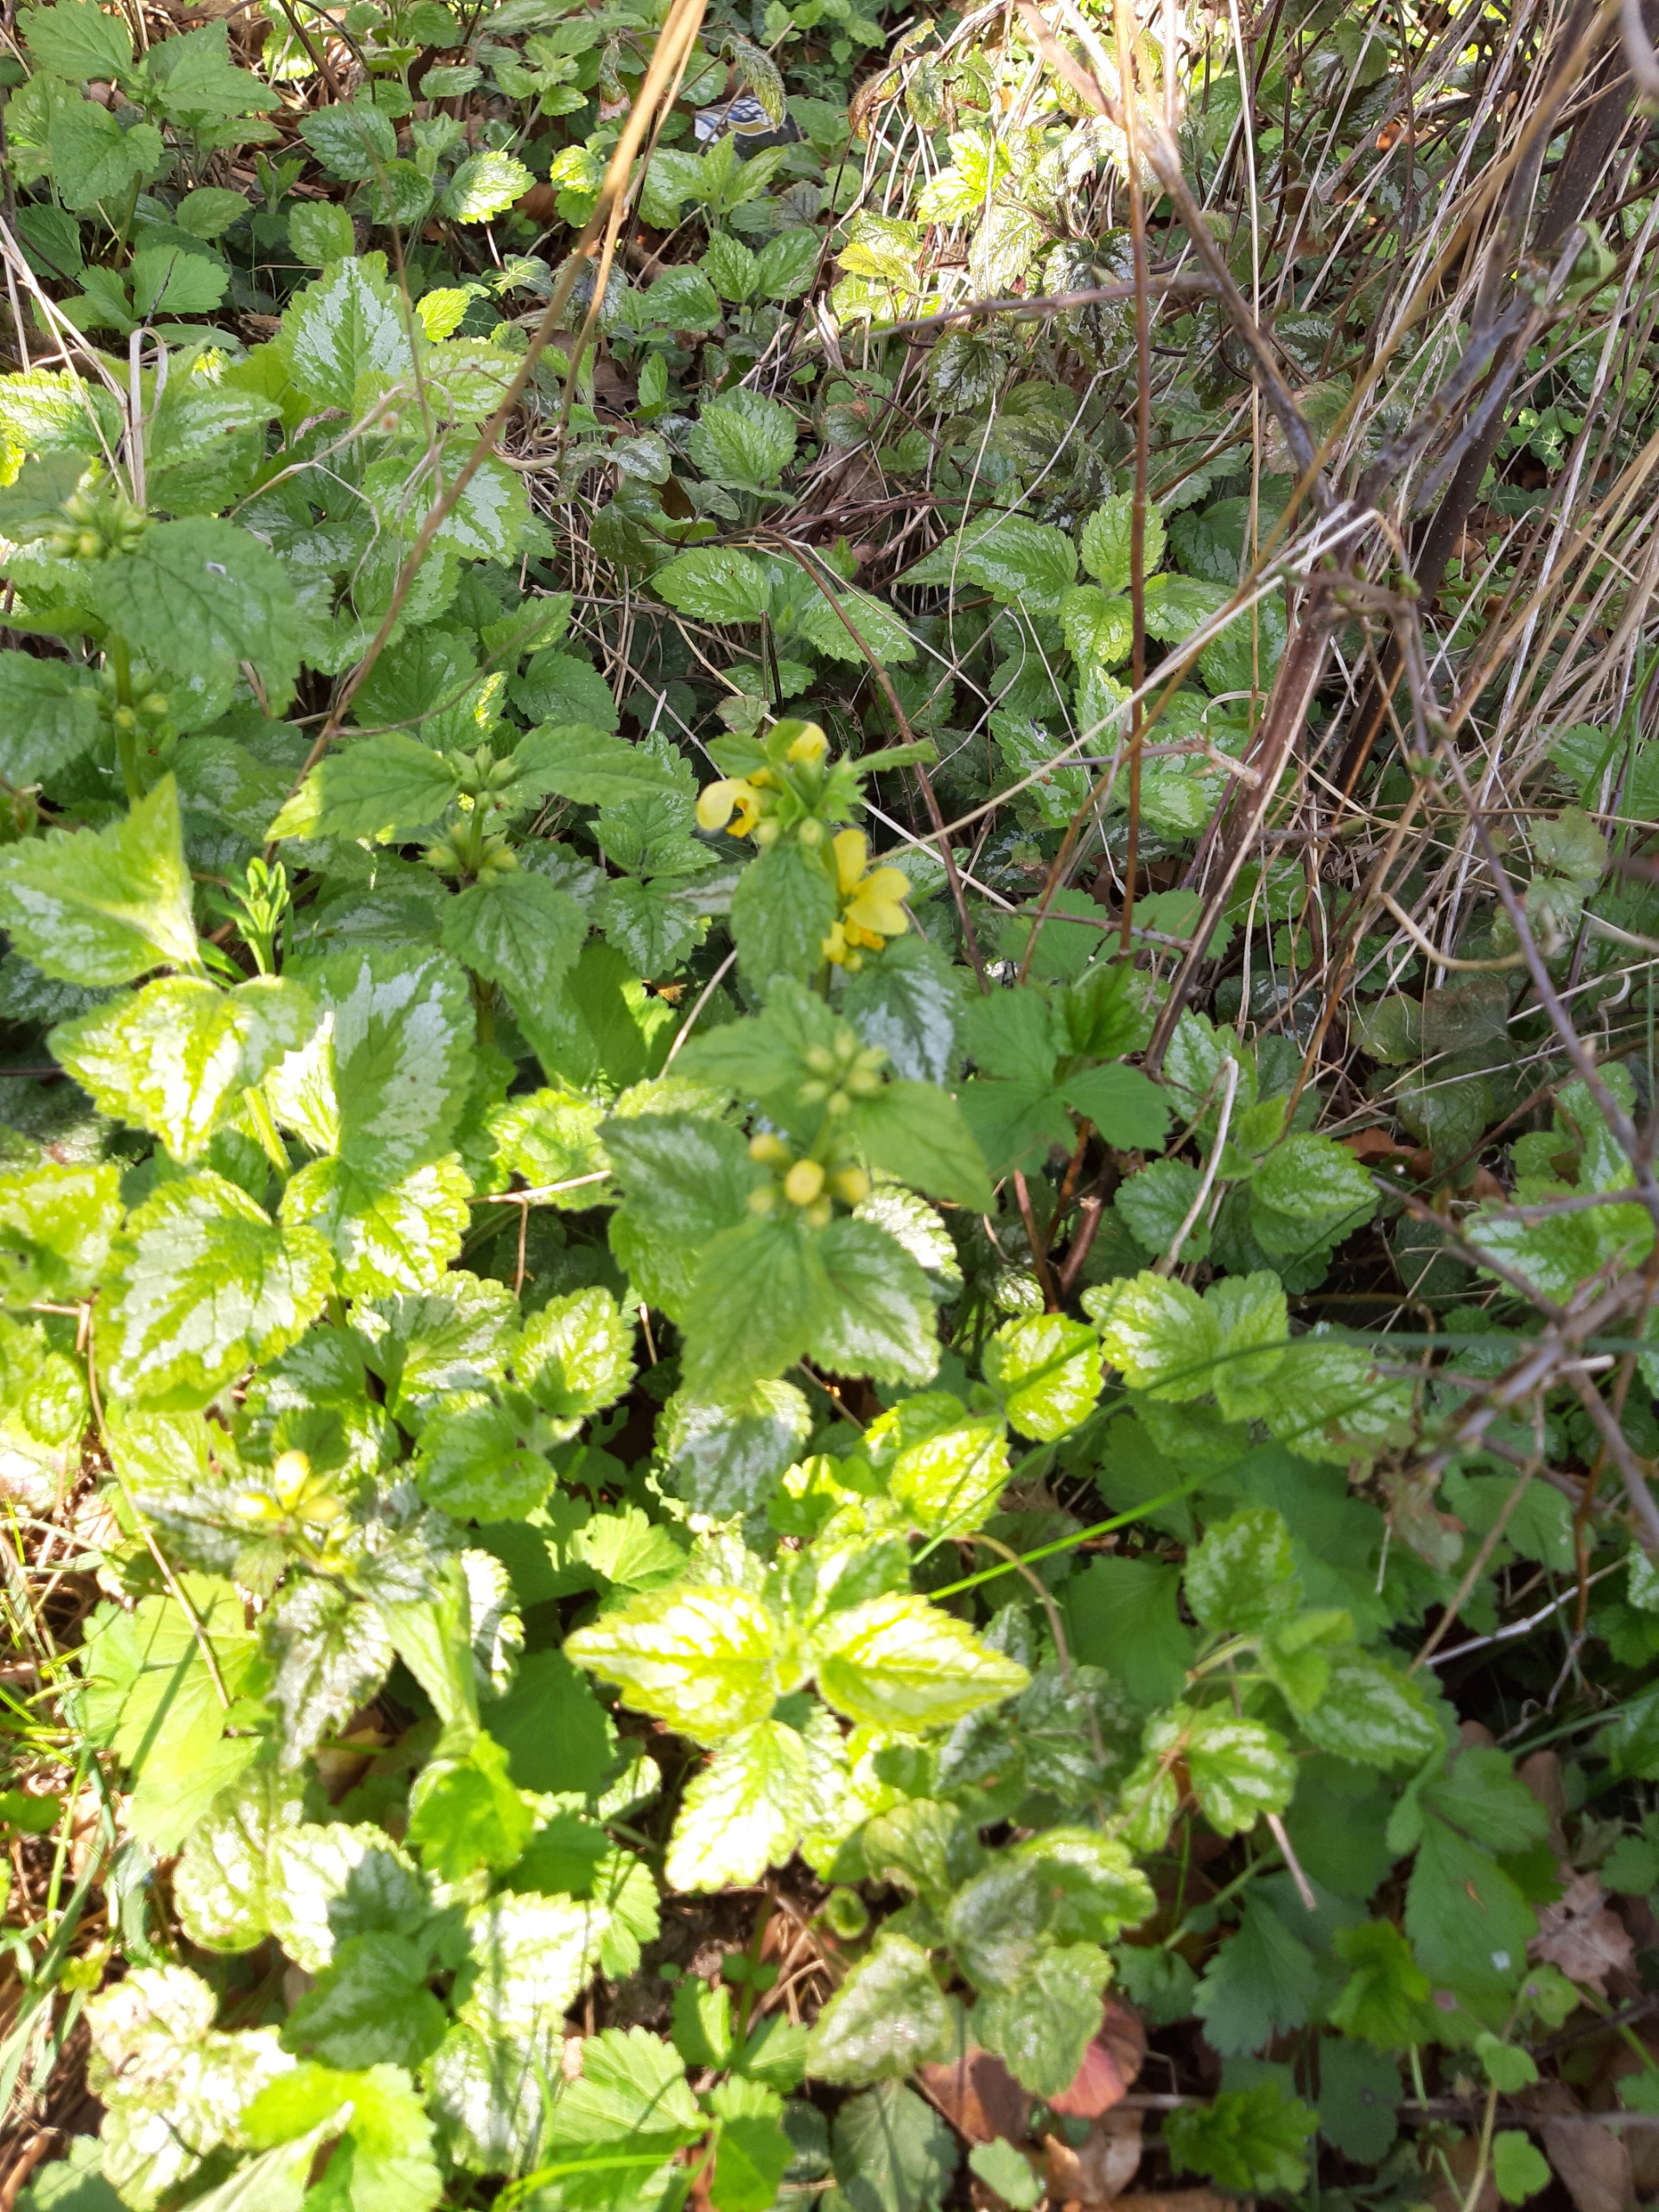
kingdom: Plantae
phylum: Tracheophyta
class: Magnoliopsida
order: Lamiales
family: Lamiaceae
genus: Lamium
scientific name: Lamium galeobdolon
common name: Have-guldnælde
